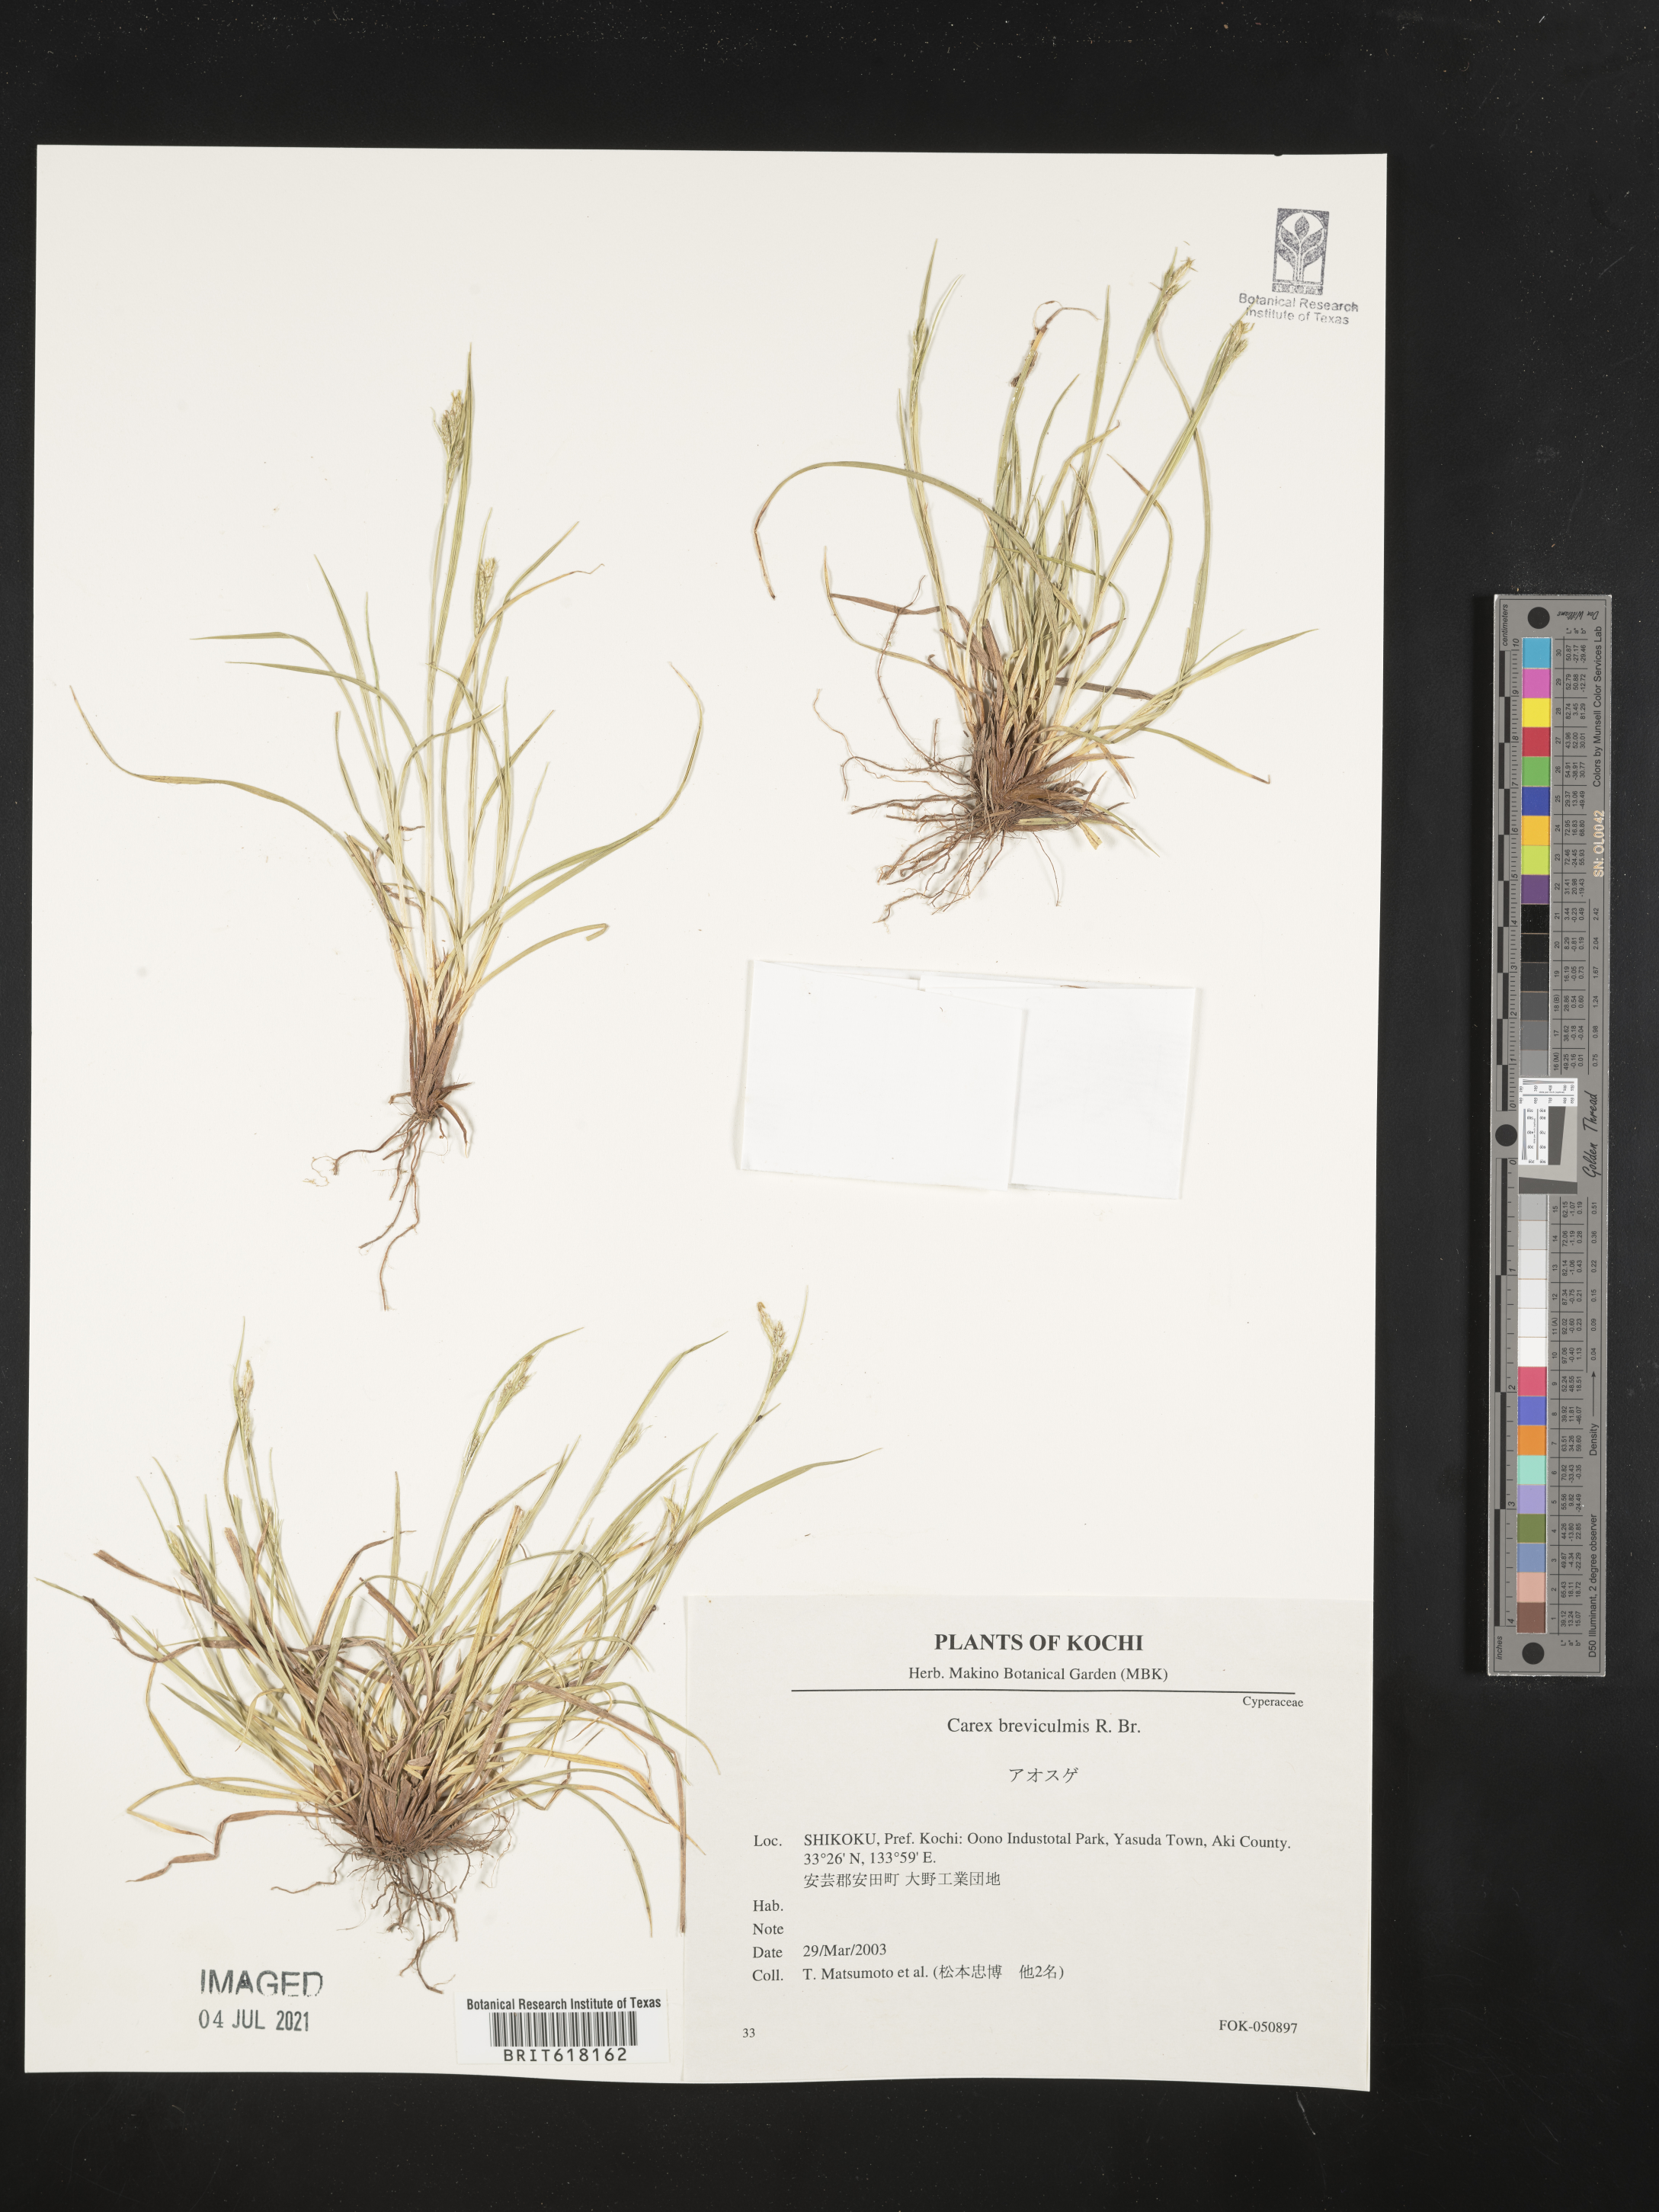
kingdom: Plantae
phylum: Tracheophyta
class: Liliopsida
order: Poales
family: Cyperaceae
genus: Carex
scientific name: Carex breviculmis
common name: Asian shortstem sedge
